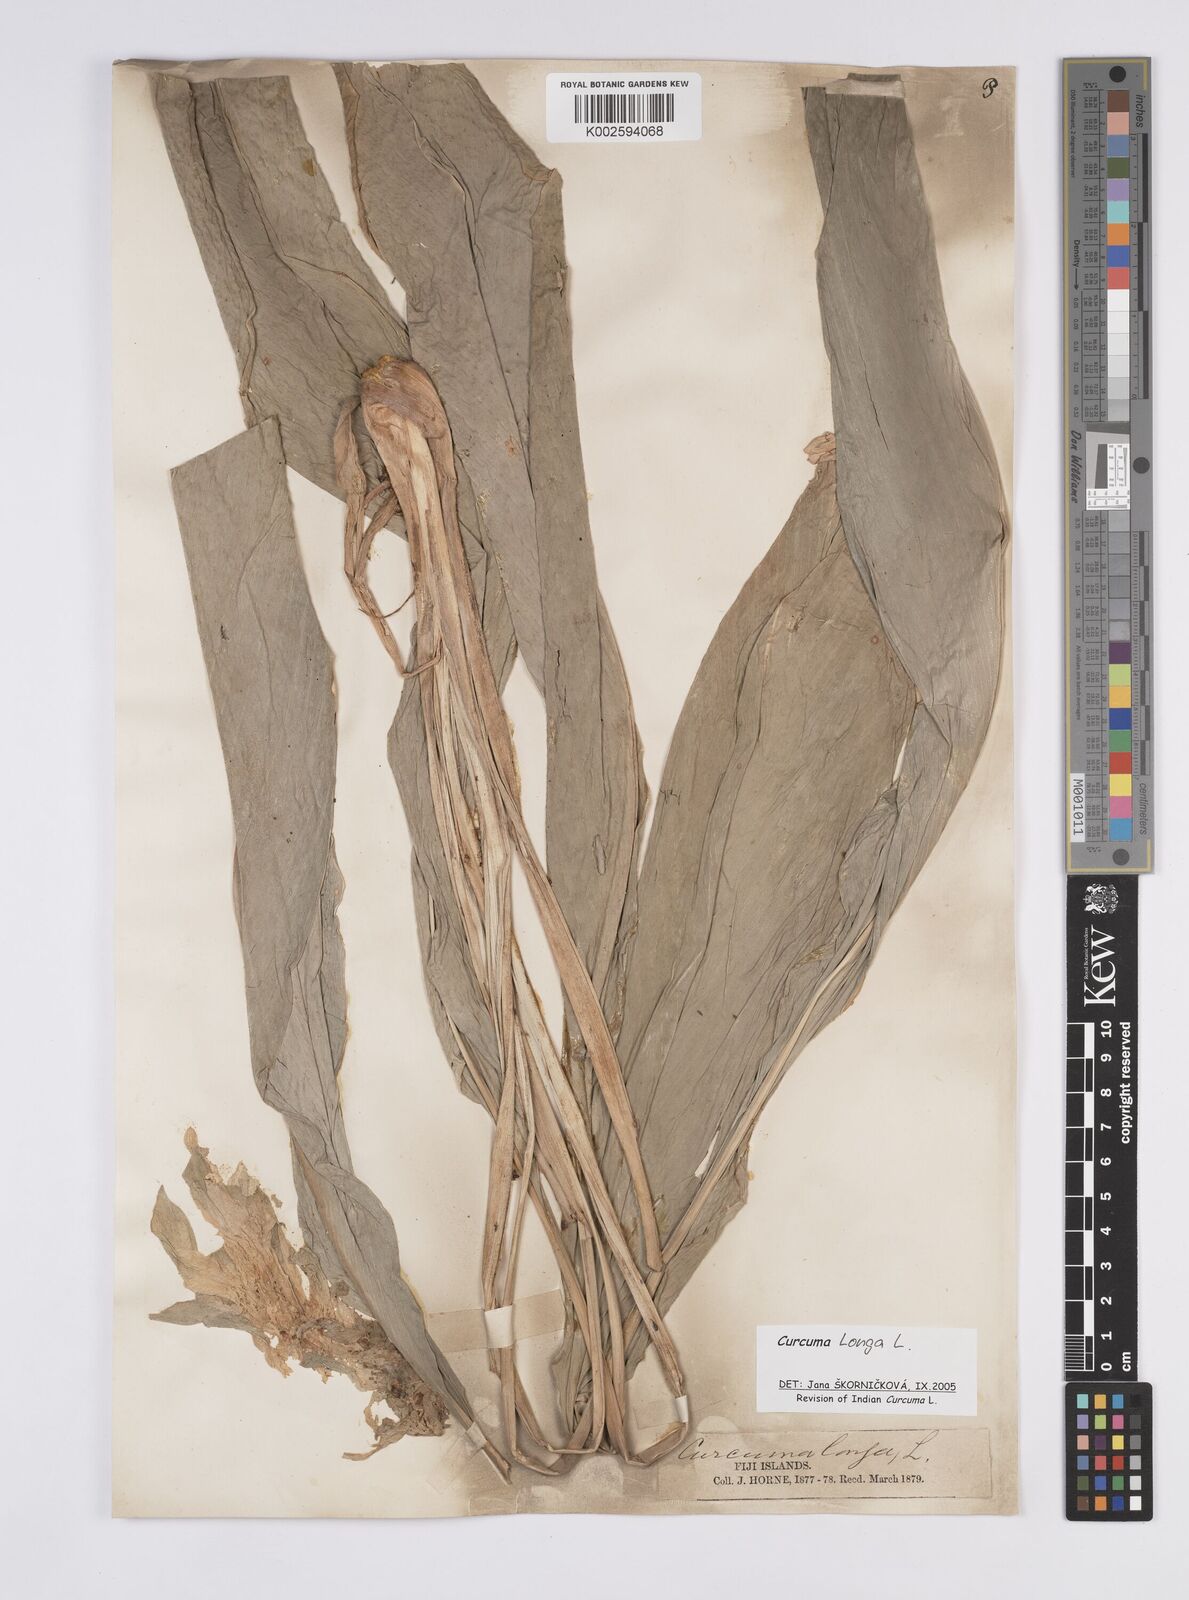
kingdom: Plantae
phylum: Tracheophyta
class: Liliopsida
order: Zingiberales
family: Zingiberaceae
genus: Curcuma
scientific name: Curcuma longa
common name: Turmeric
